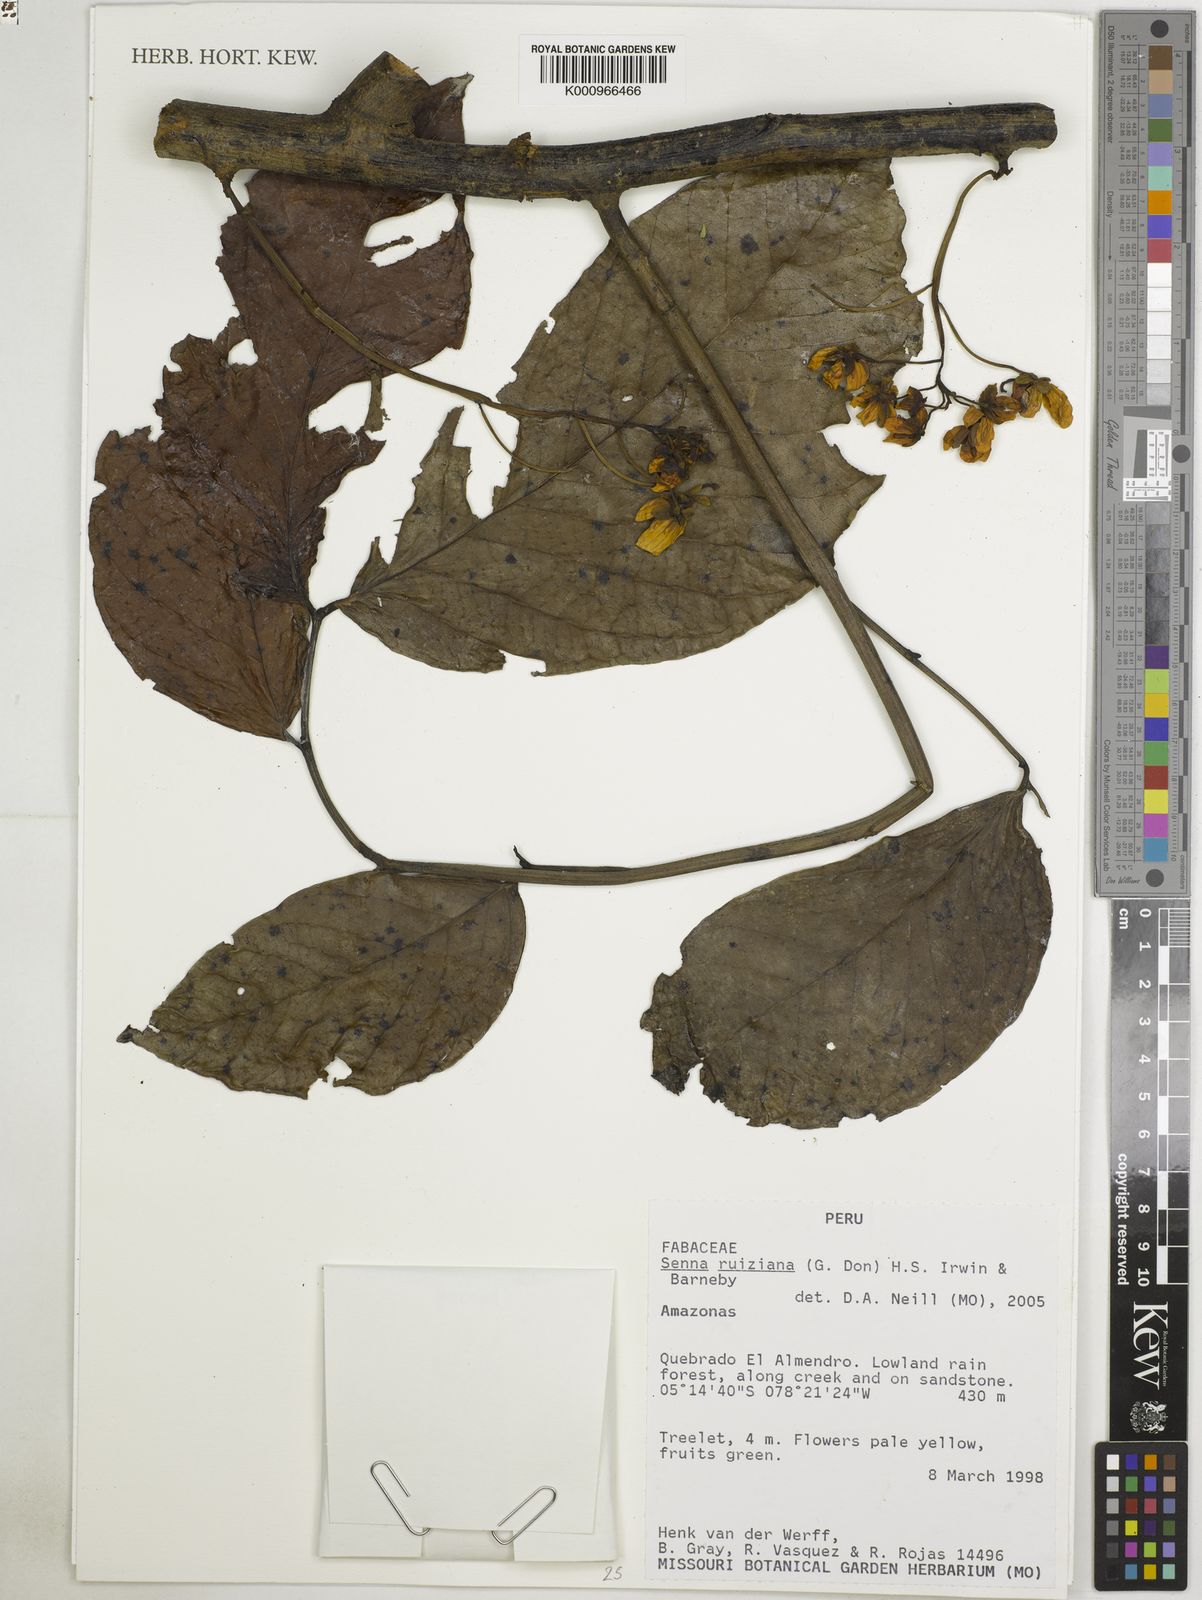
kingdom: Plantae
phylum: Tracheophyta
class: Magnoliopsida
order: Fabales
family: Fabaceae
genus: Senna
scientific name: Senna ruiziana
